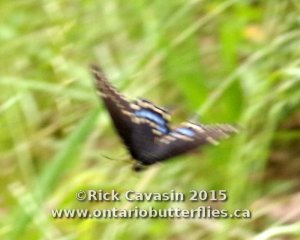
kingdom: Animalia
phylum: Arthropoda
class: Insecta
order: Lepidoptera
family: Papilionidae
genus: Papilio
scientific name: Papilio polyxenes
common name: Black Swallowtail
